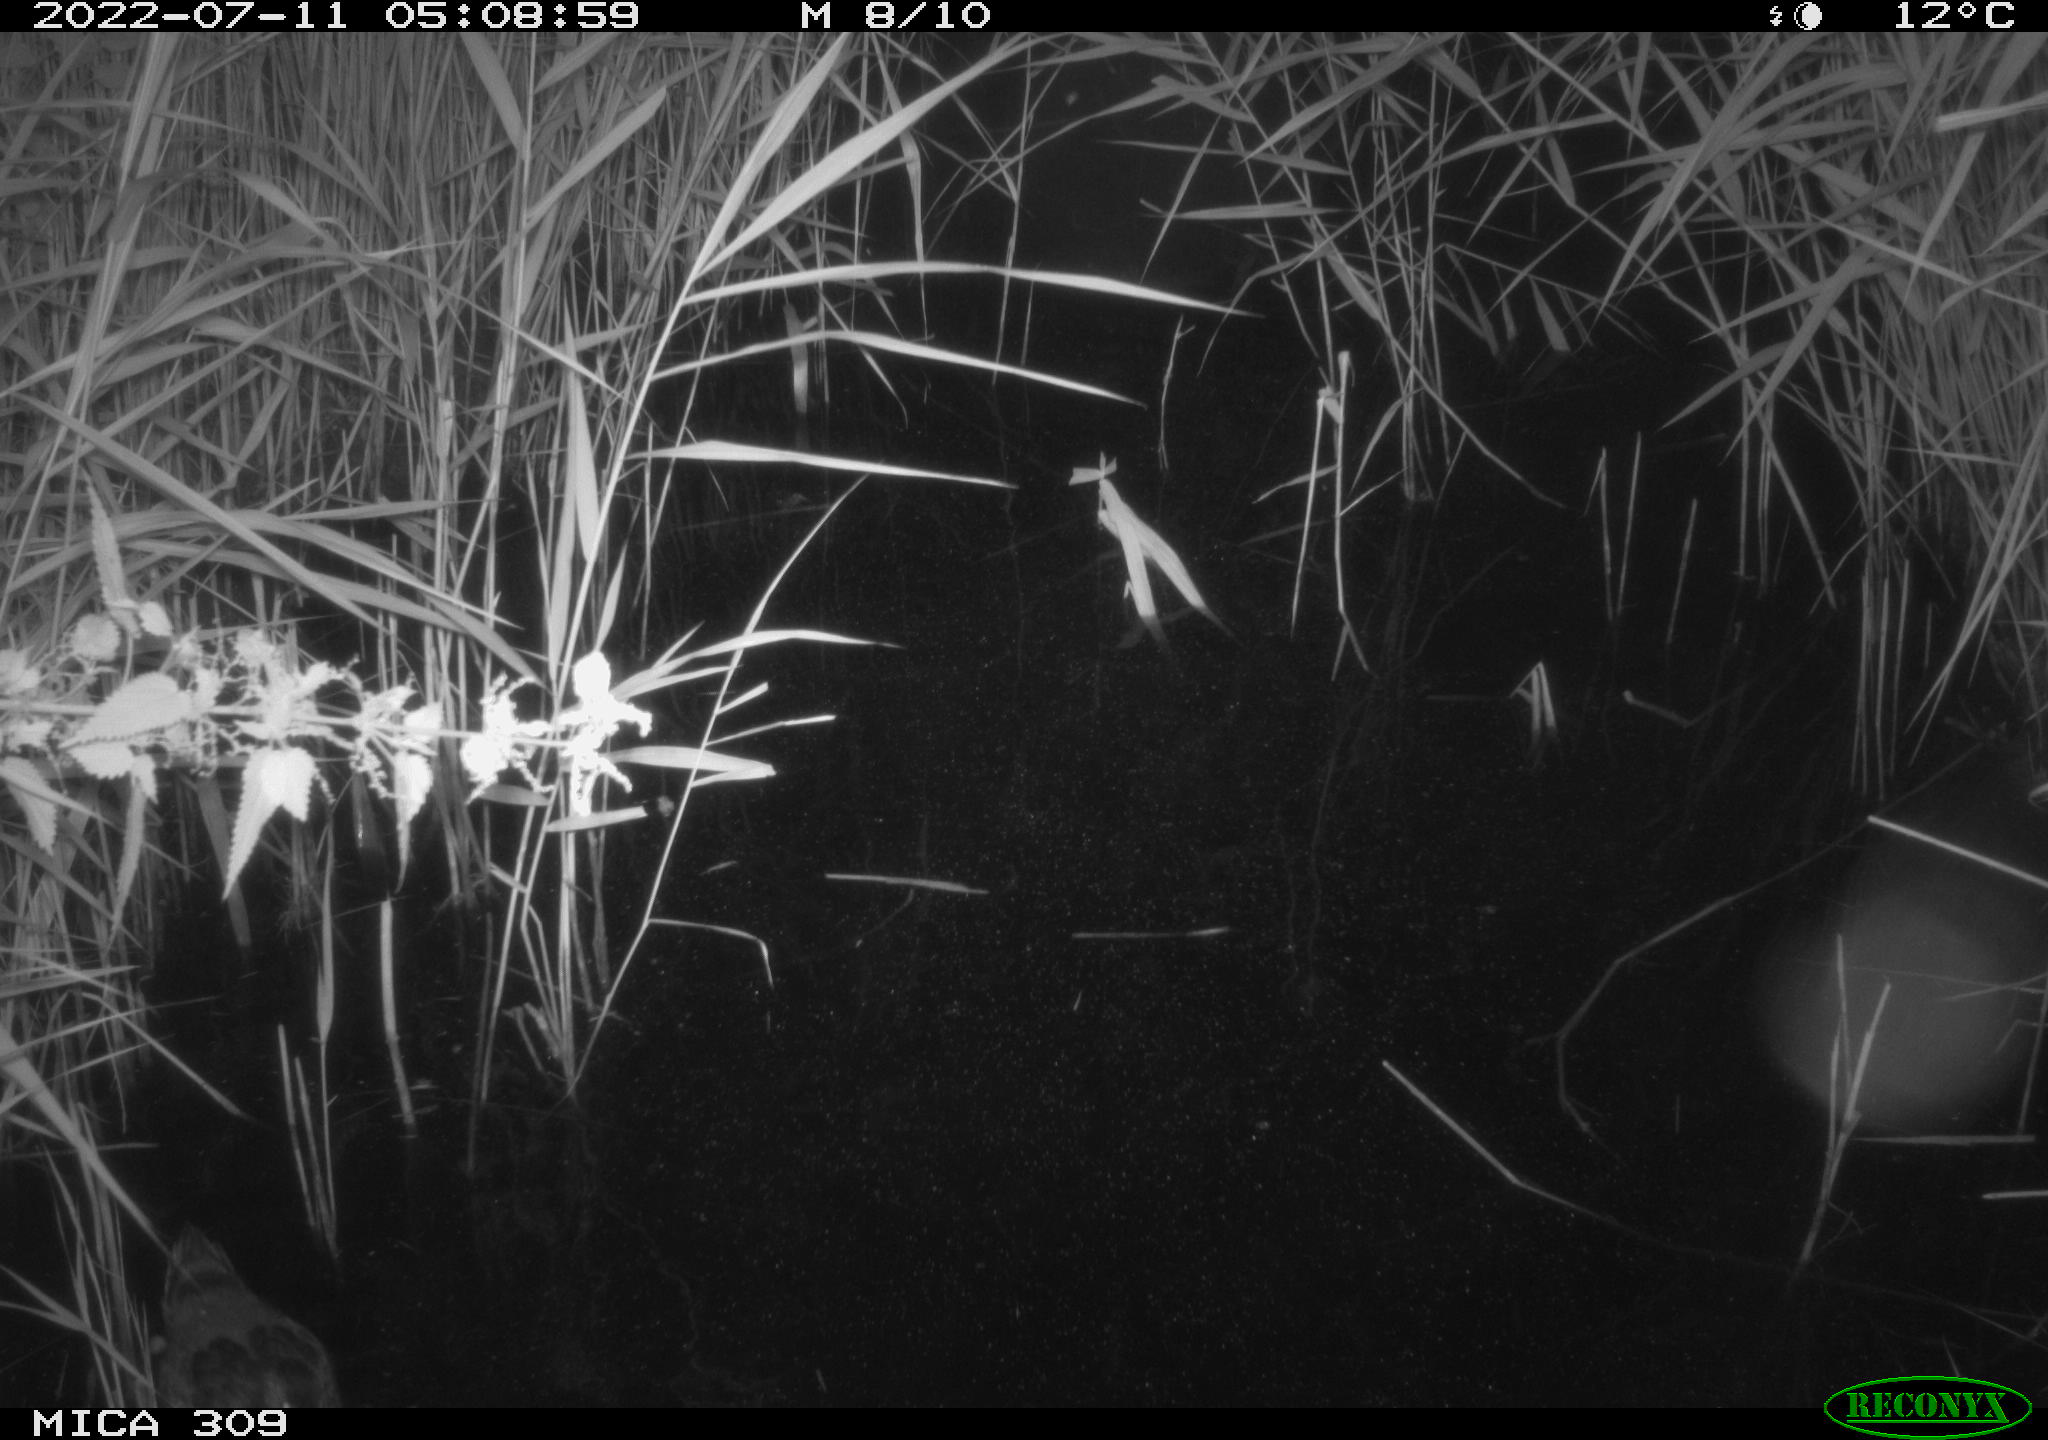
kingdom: Animalia
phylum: Chordata
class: Aves
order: Anseriformes
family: Anatidae
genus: Anas
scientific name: Anas platyrhynchos
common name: Mallard
